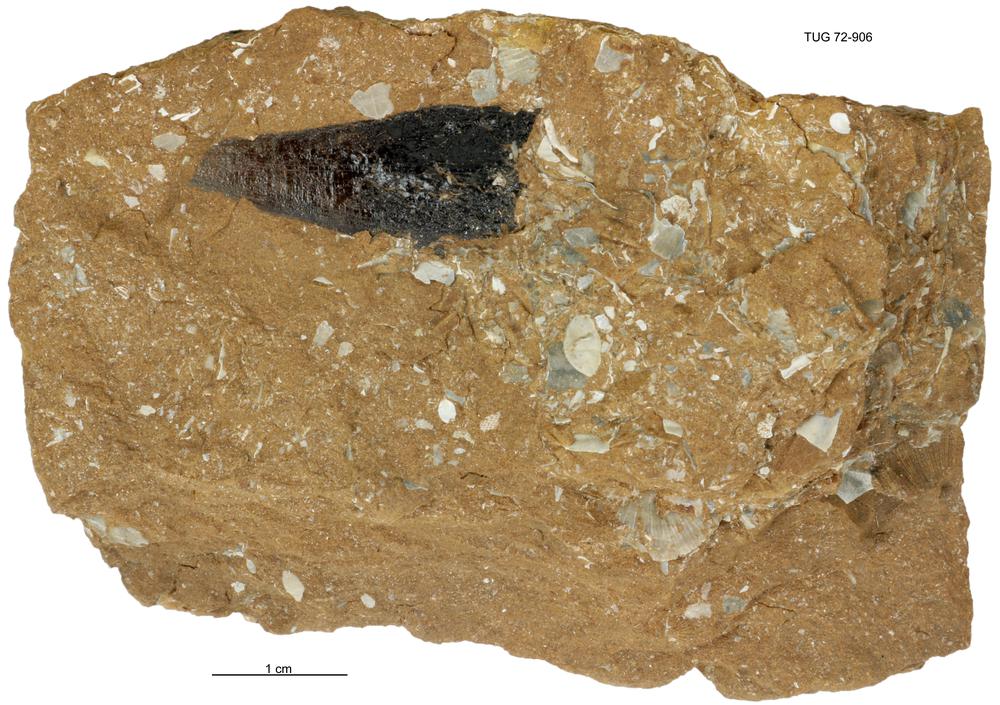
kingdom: Animalia
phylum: Cnidaria
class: Scyphozoa
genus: Sphenothallus
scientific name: Sphenothallus
